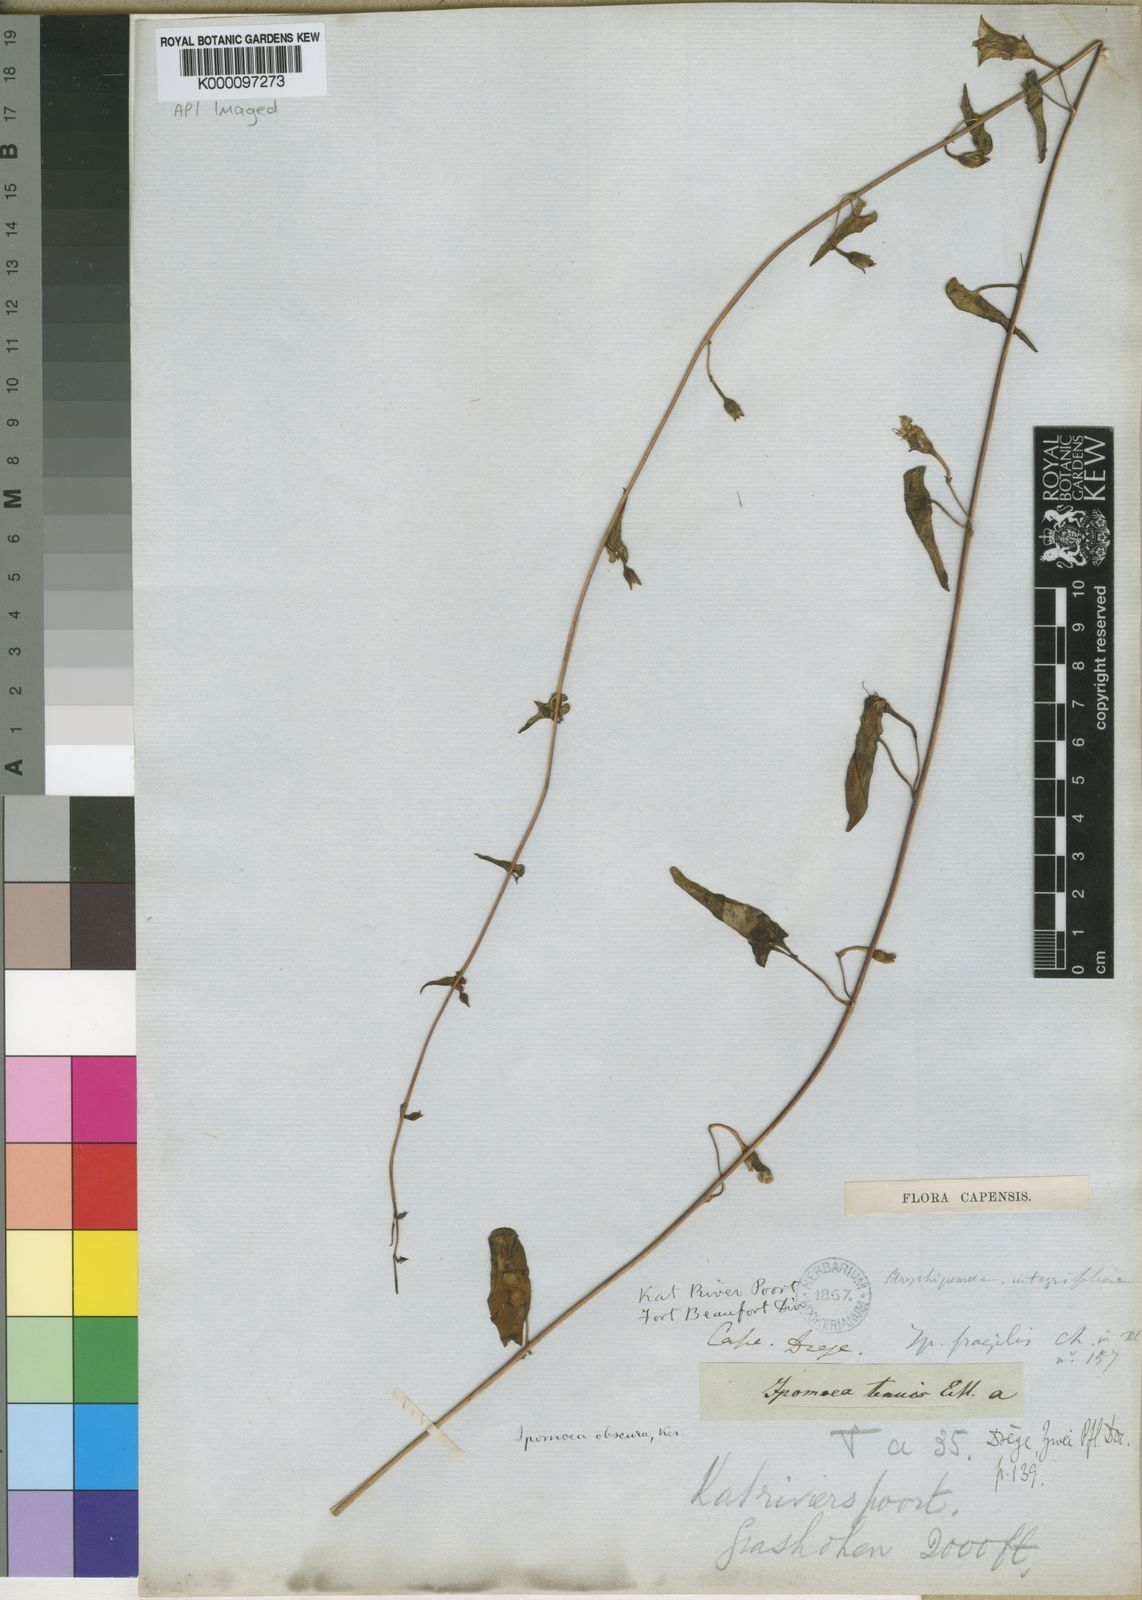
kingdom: Plantae
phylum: Tracheophyta
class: Magnoliopsida
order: Solanales
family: Convolvulaceae
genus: Ipomoea
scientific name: Ipomoea obscura
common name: Obscure morning-glory
